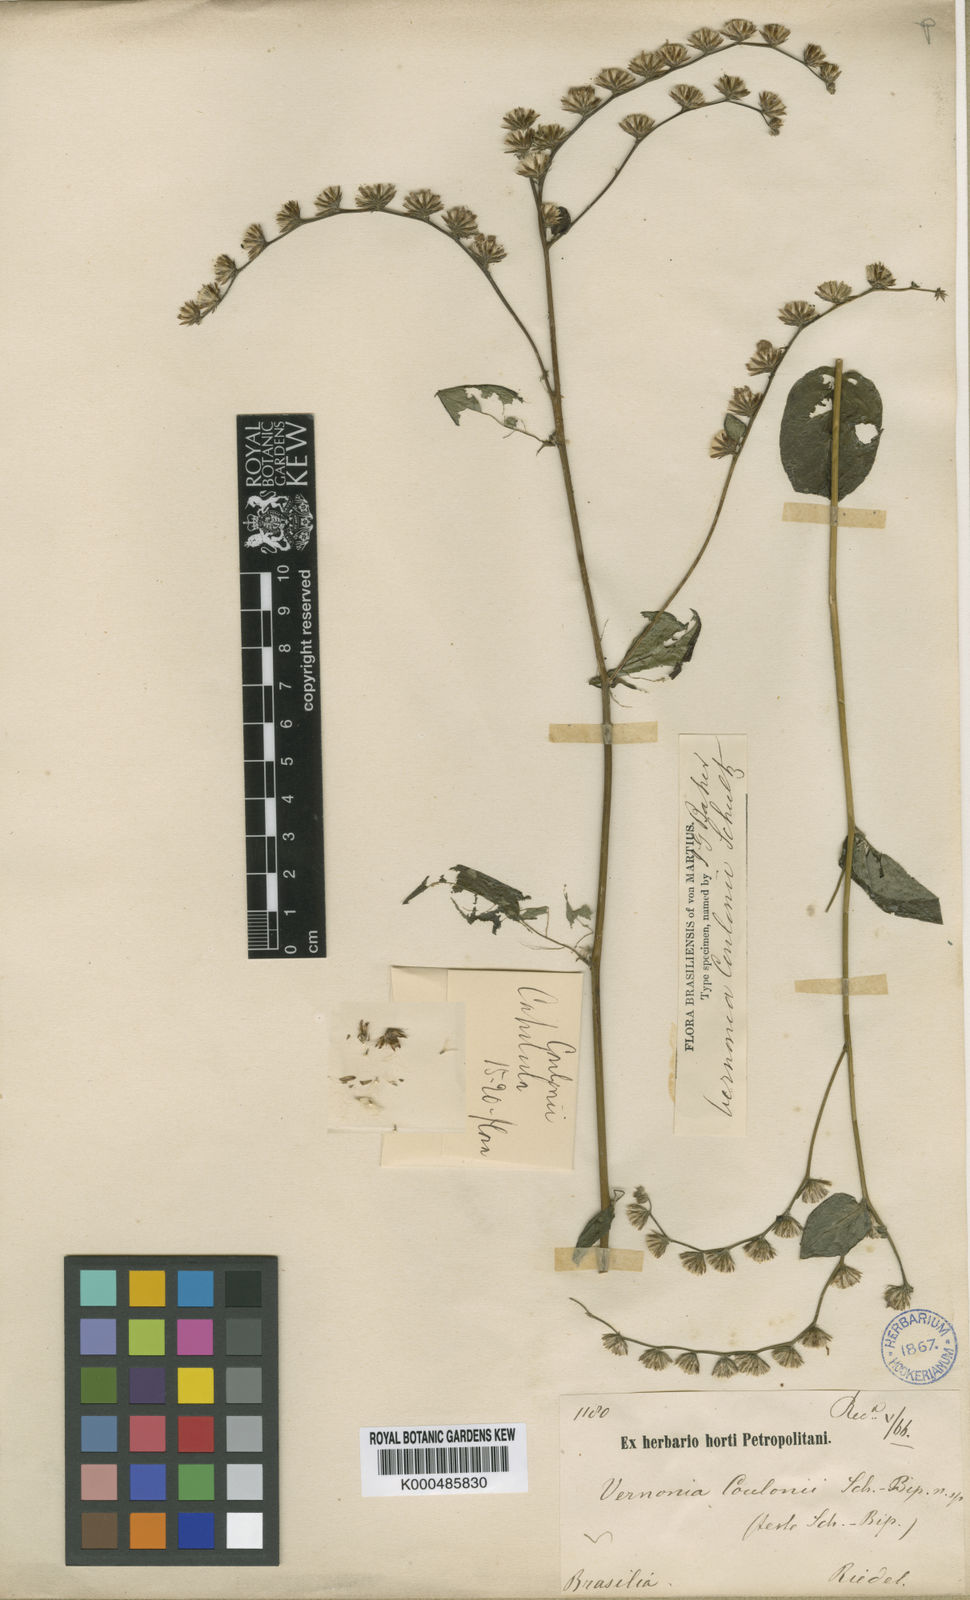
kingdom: Plantae
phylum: Tracheophyta
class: Magnoliopsida
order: Asterales
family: Asteraceae
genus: Lepidaploa
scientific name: Lepidaploa sororia
